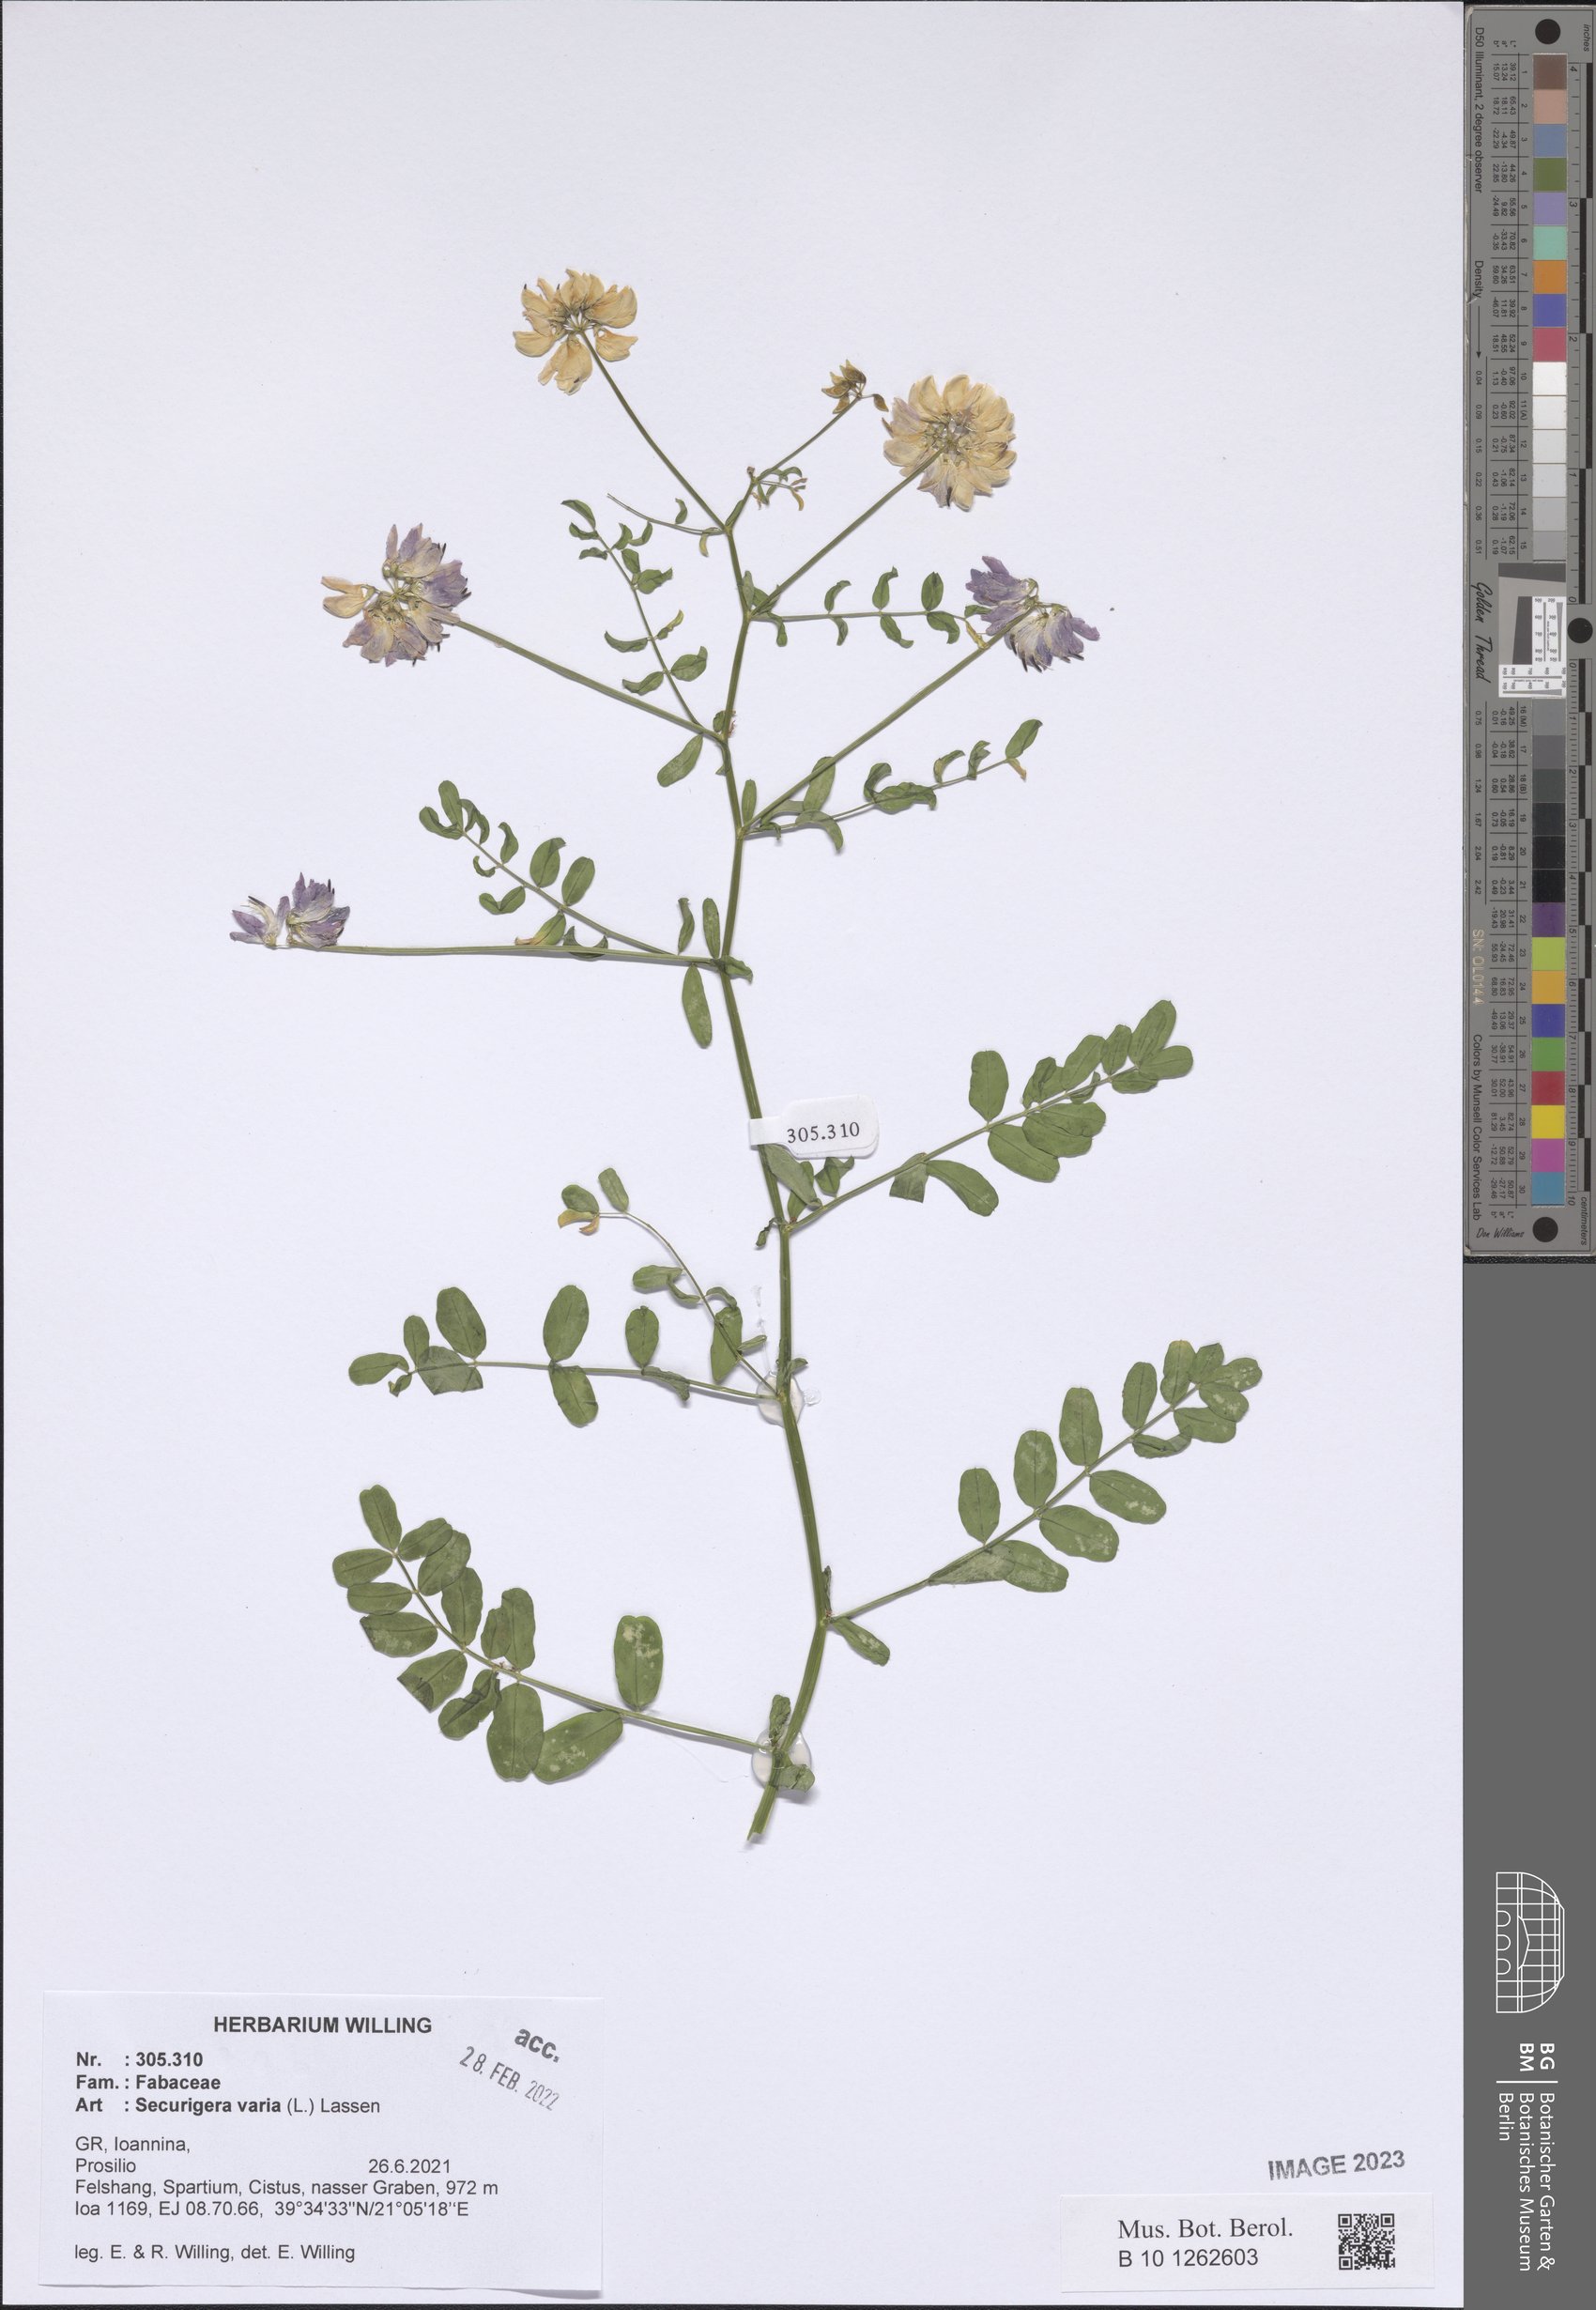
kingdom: Plantae
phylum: Tracheophyta
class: Magnoliopsida
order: Fabales
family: Fabaceae
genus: Coronilla
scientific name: Coronilla varia
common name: Crownvetch
